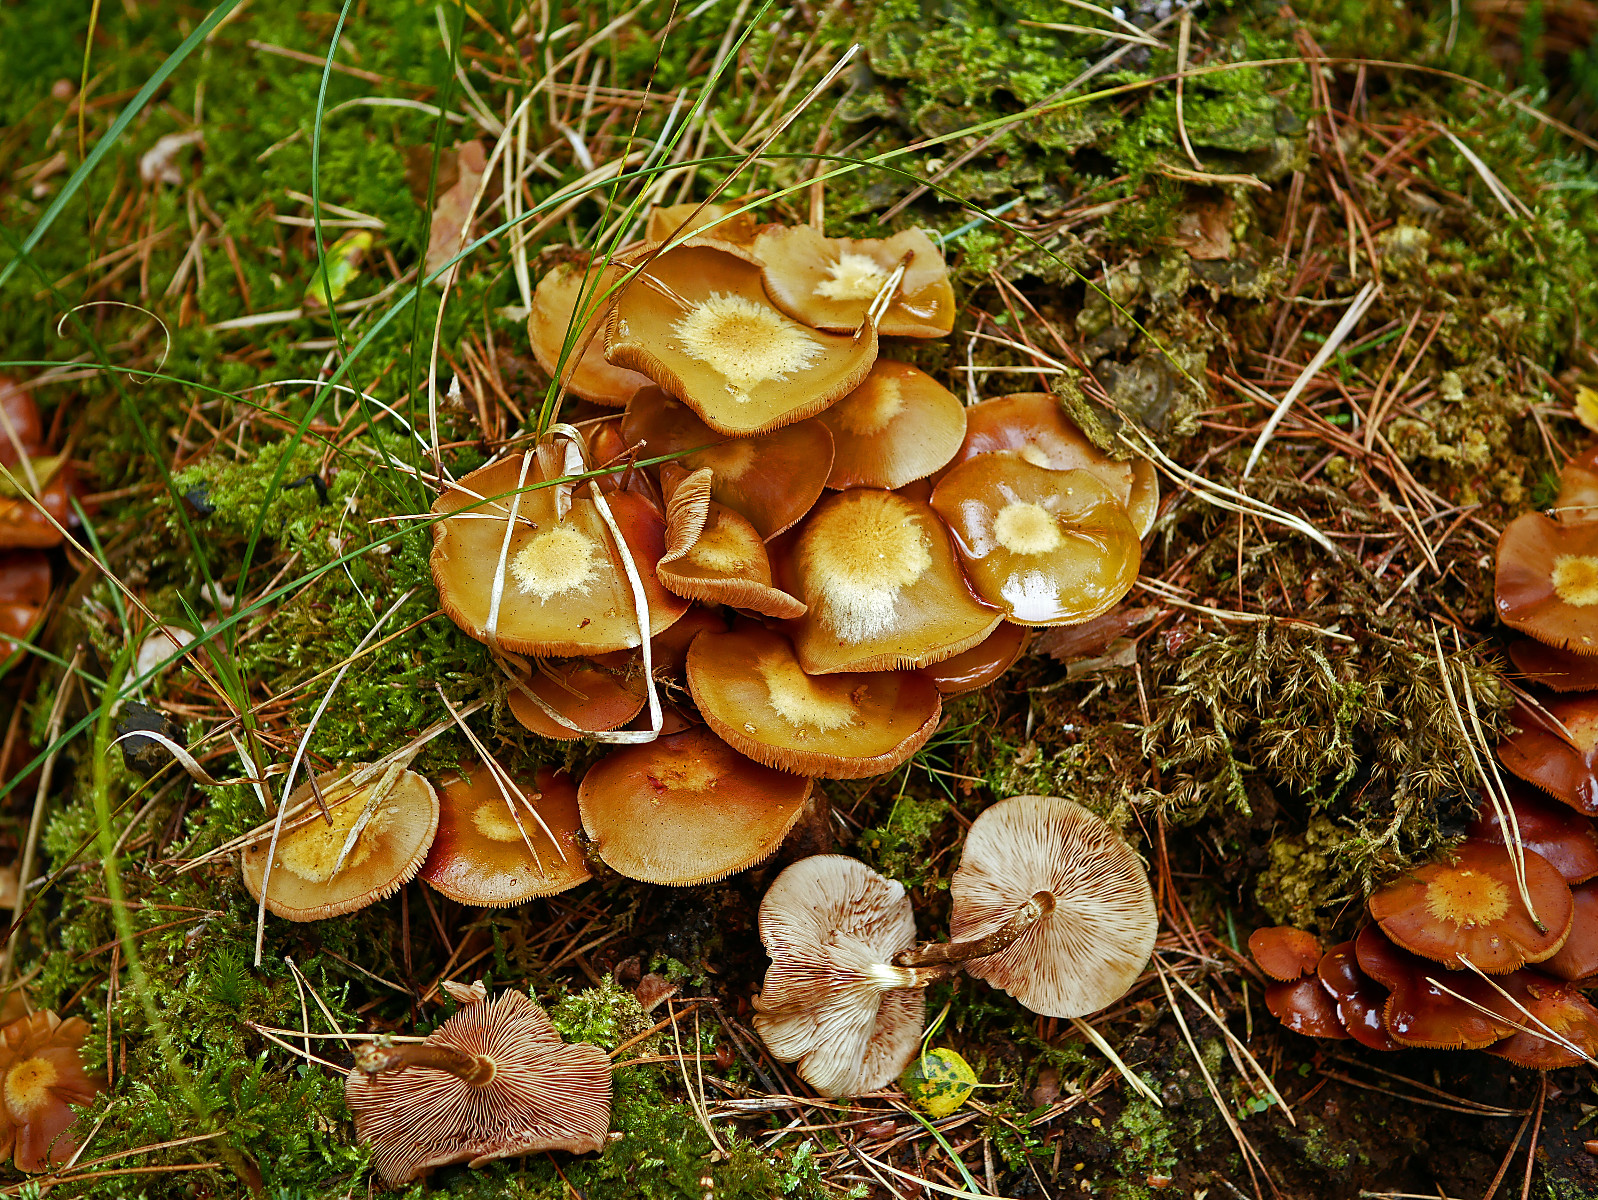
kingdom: Fungi
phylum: Basidiomycota
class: Agaricomycetes
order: Agaricales
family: Strophariaceae
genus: Kuehneromyces
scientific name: Kuehneromyces mutabilis
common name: foranderlig skælhat
